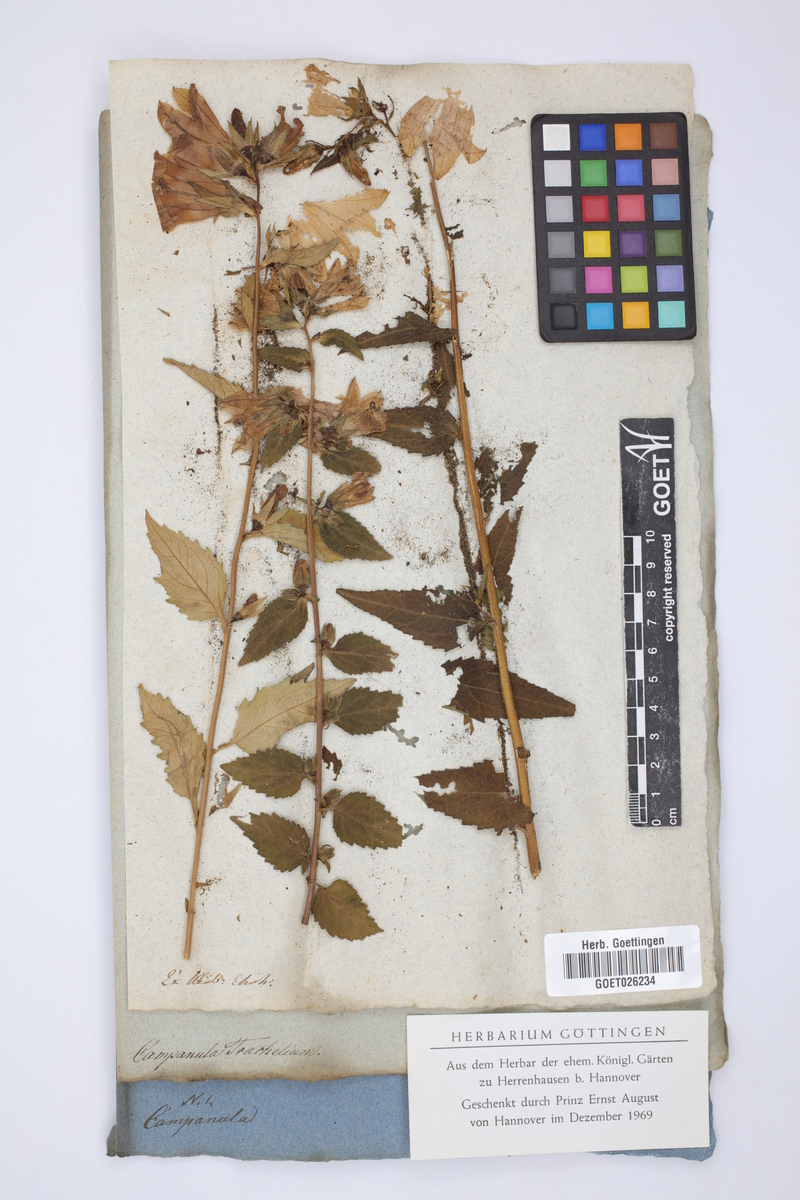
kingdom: Plantae
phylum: Tracheophyta
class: Magnoliopsida
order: Asterales
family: Campanulaceae
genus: Campanula
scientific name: Campanula trachelium
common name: Nettle-leaved bellflower
